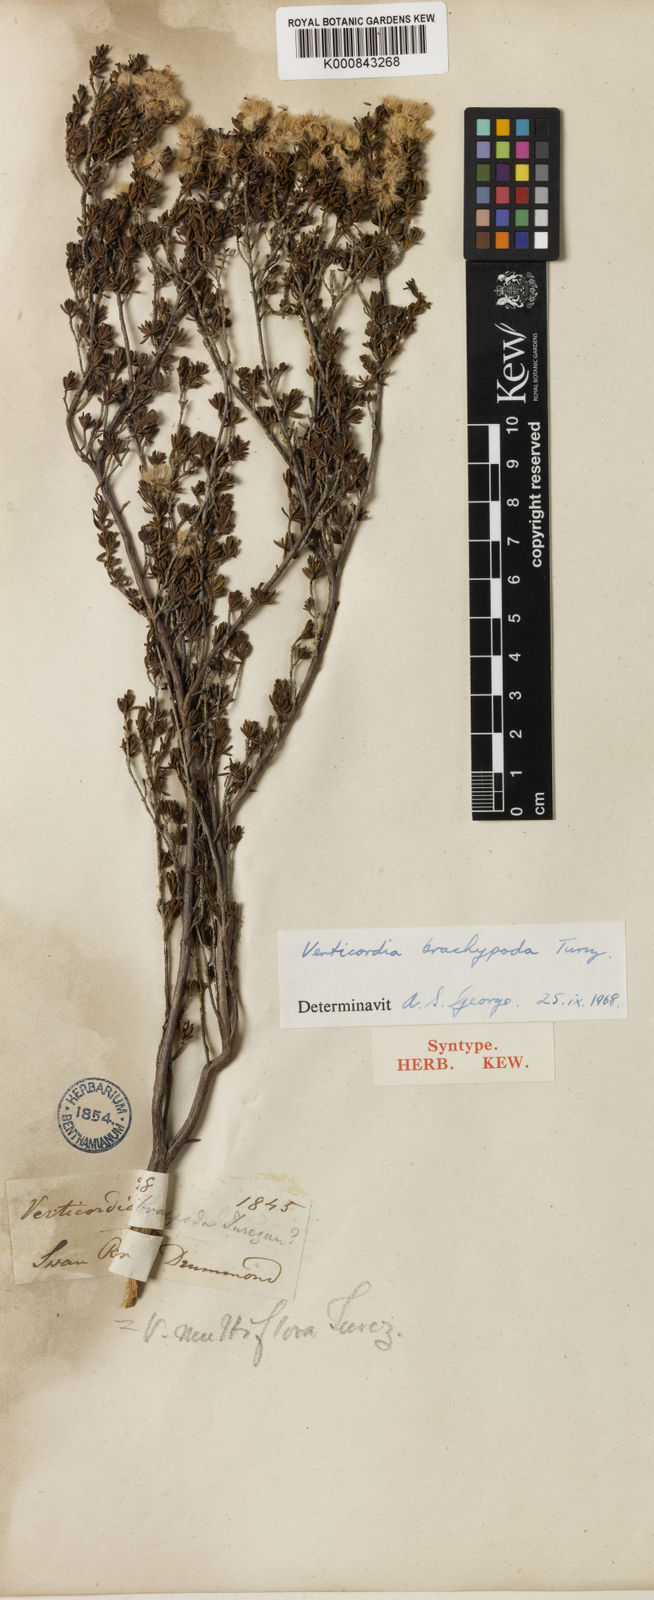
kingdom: Plantae
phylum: Tracheophyta
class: Magnoliopsida
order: Myrtales
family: Myrtaceae
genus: Verticordia
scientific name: Verticordia brachypoda
